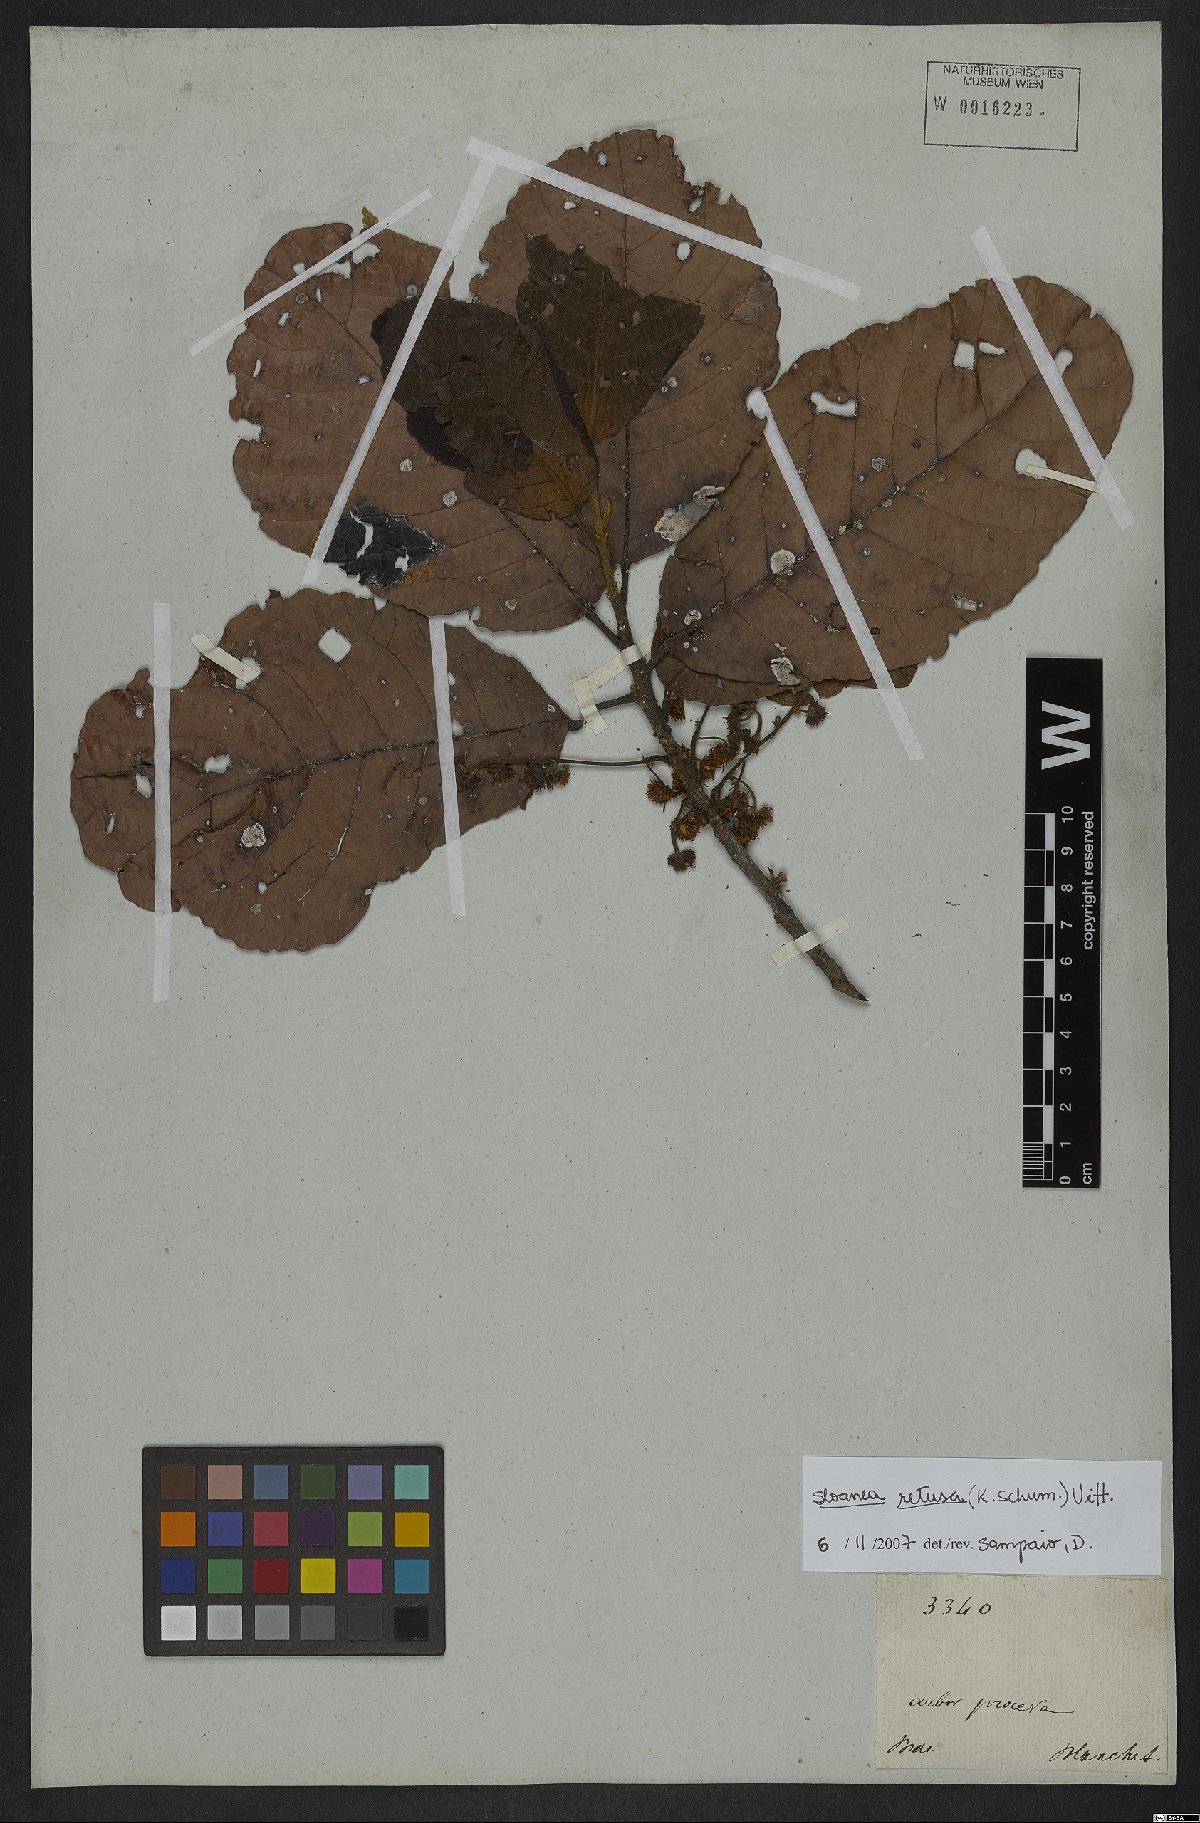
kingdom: Plantae
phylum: Tracheophyta
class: Magnoliopsida
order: Oxalidales
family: Elaeocarpaceae
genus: Sloanea
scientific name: Sloanea retusa
